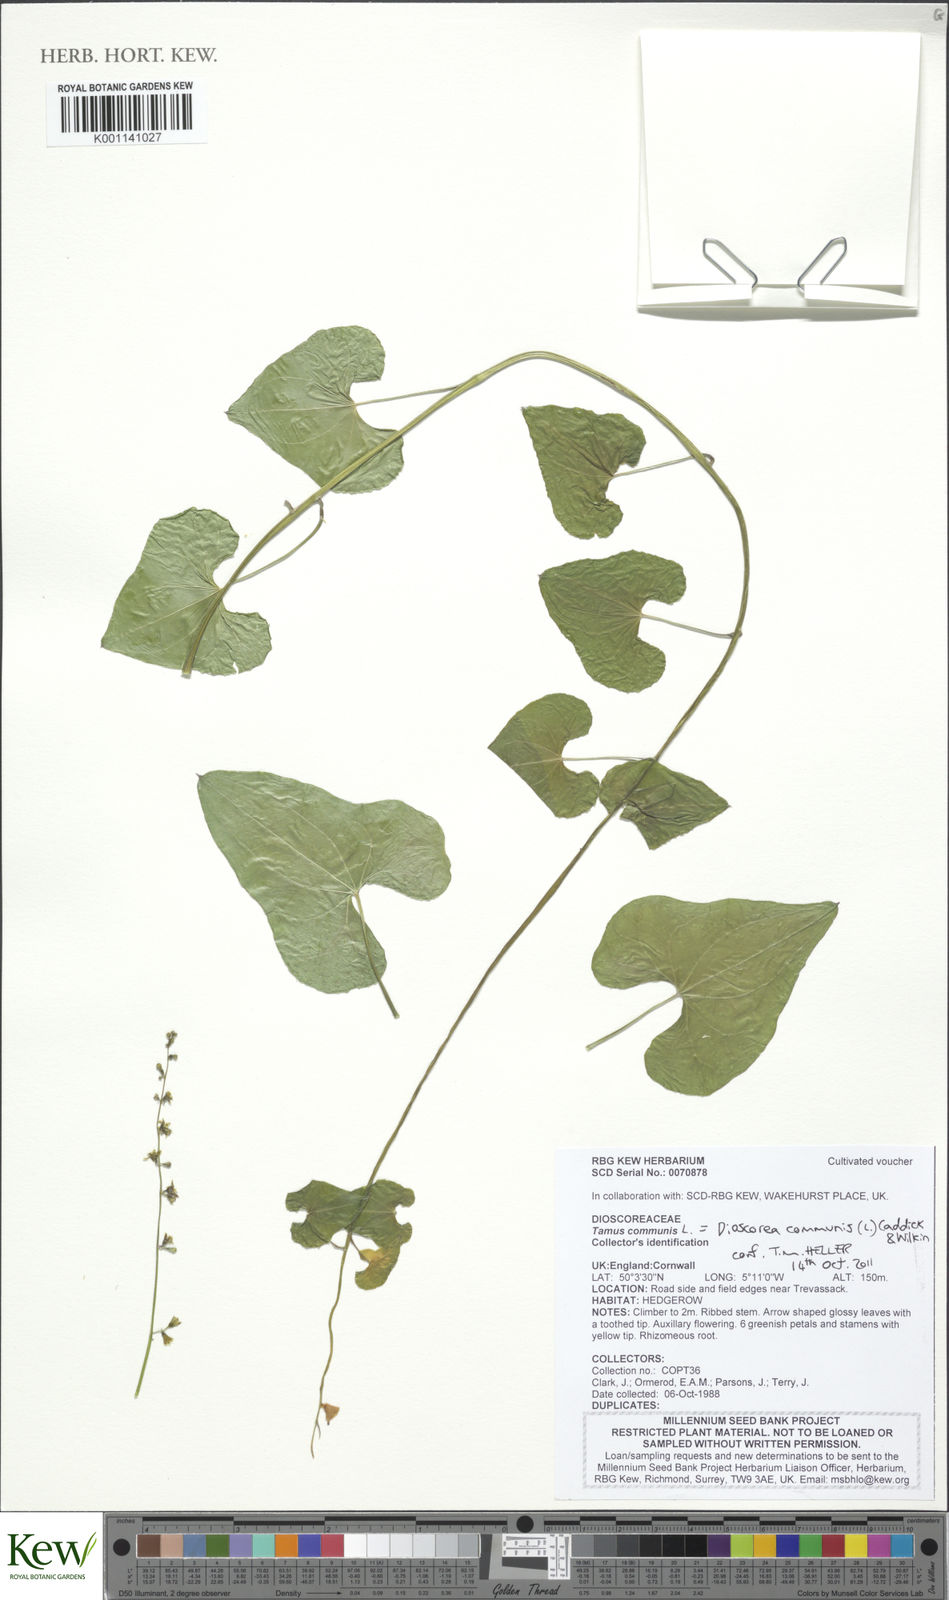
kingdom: Plantae
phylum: Tracheophyta
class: Liliopsida
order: Dioscoreales
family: Dioscoreaceae
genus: Dioscorea
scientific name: Dioscorea communis
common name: Black-bindweed
